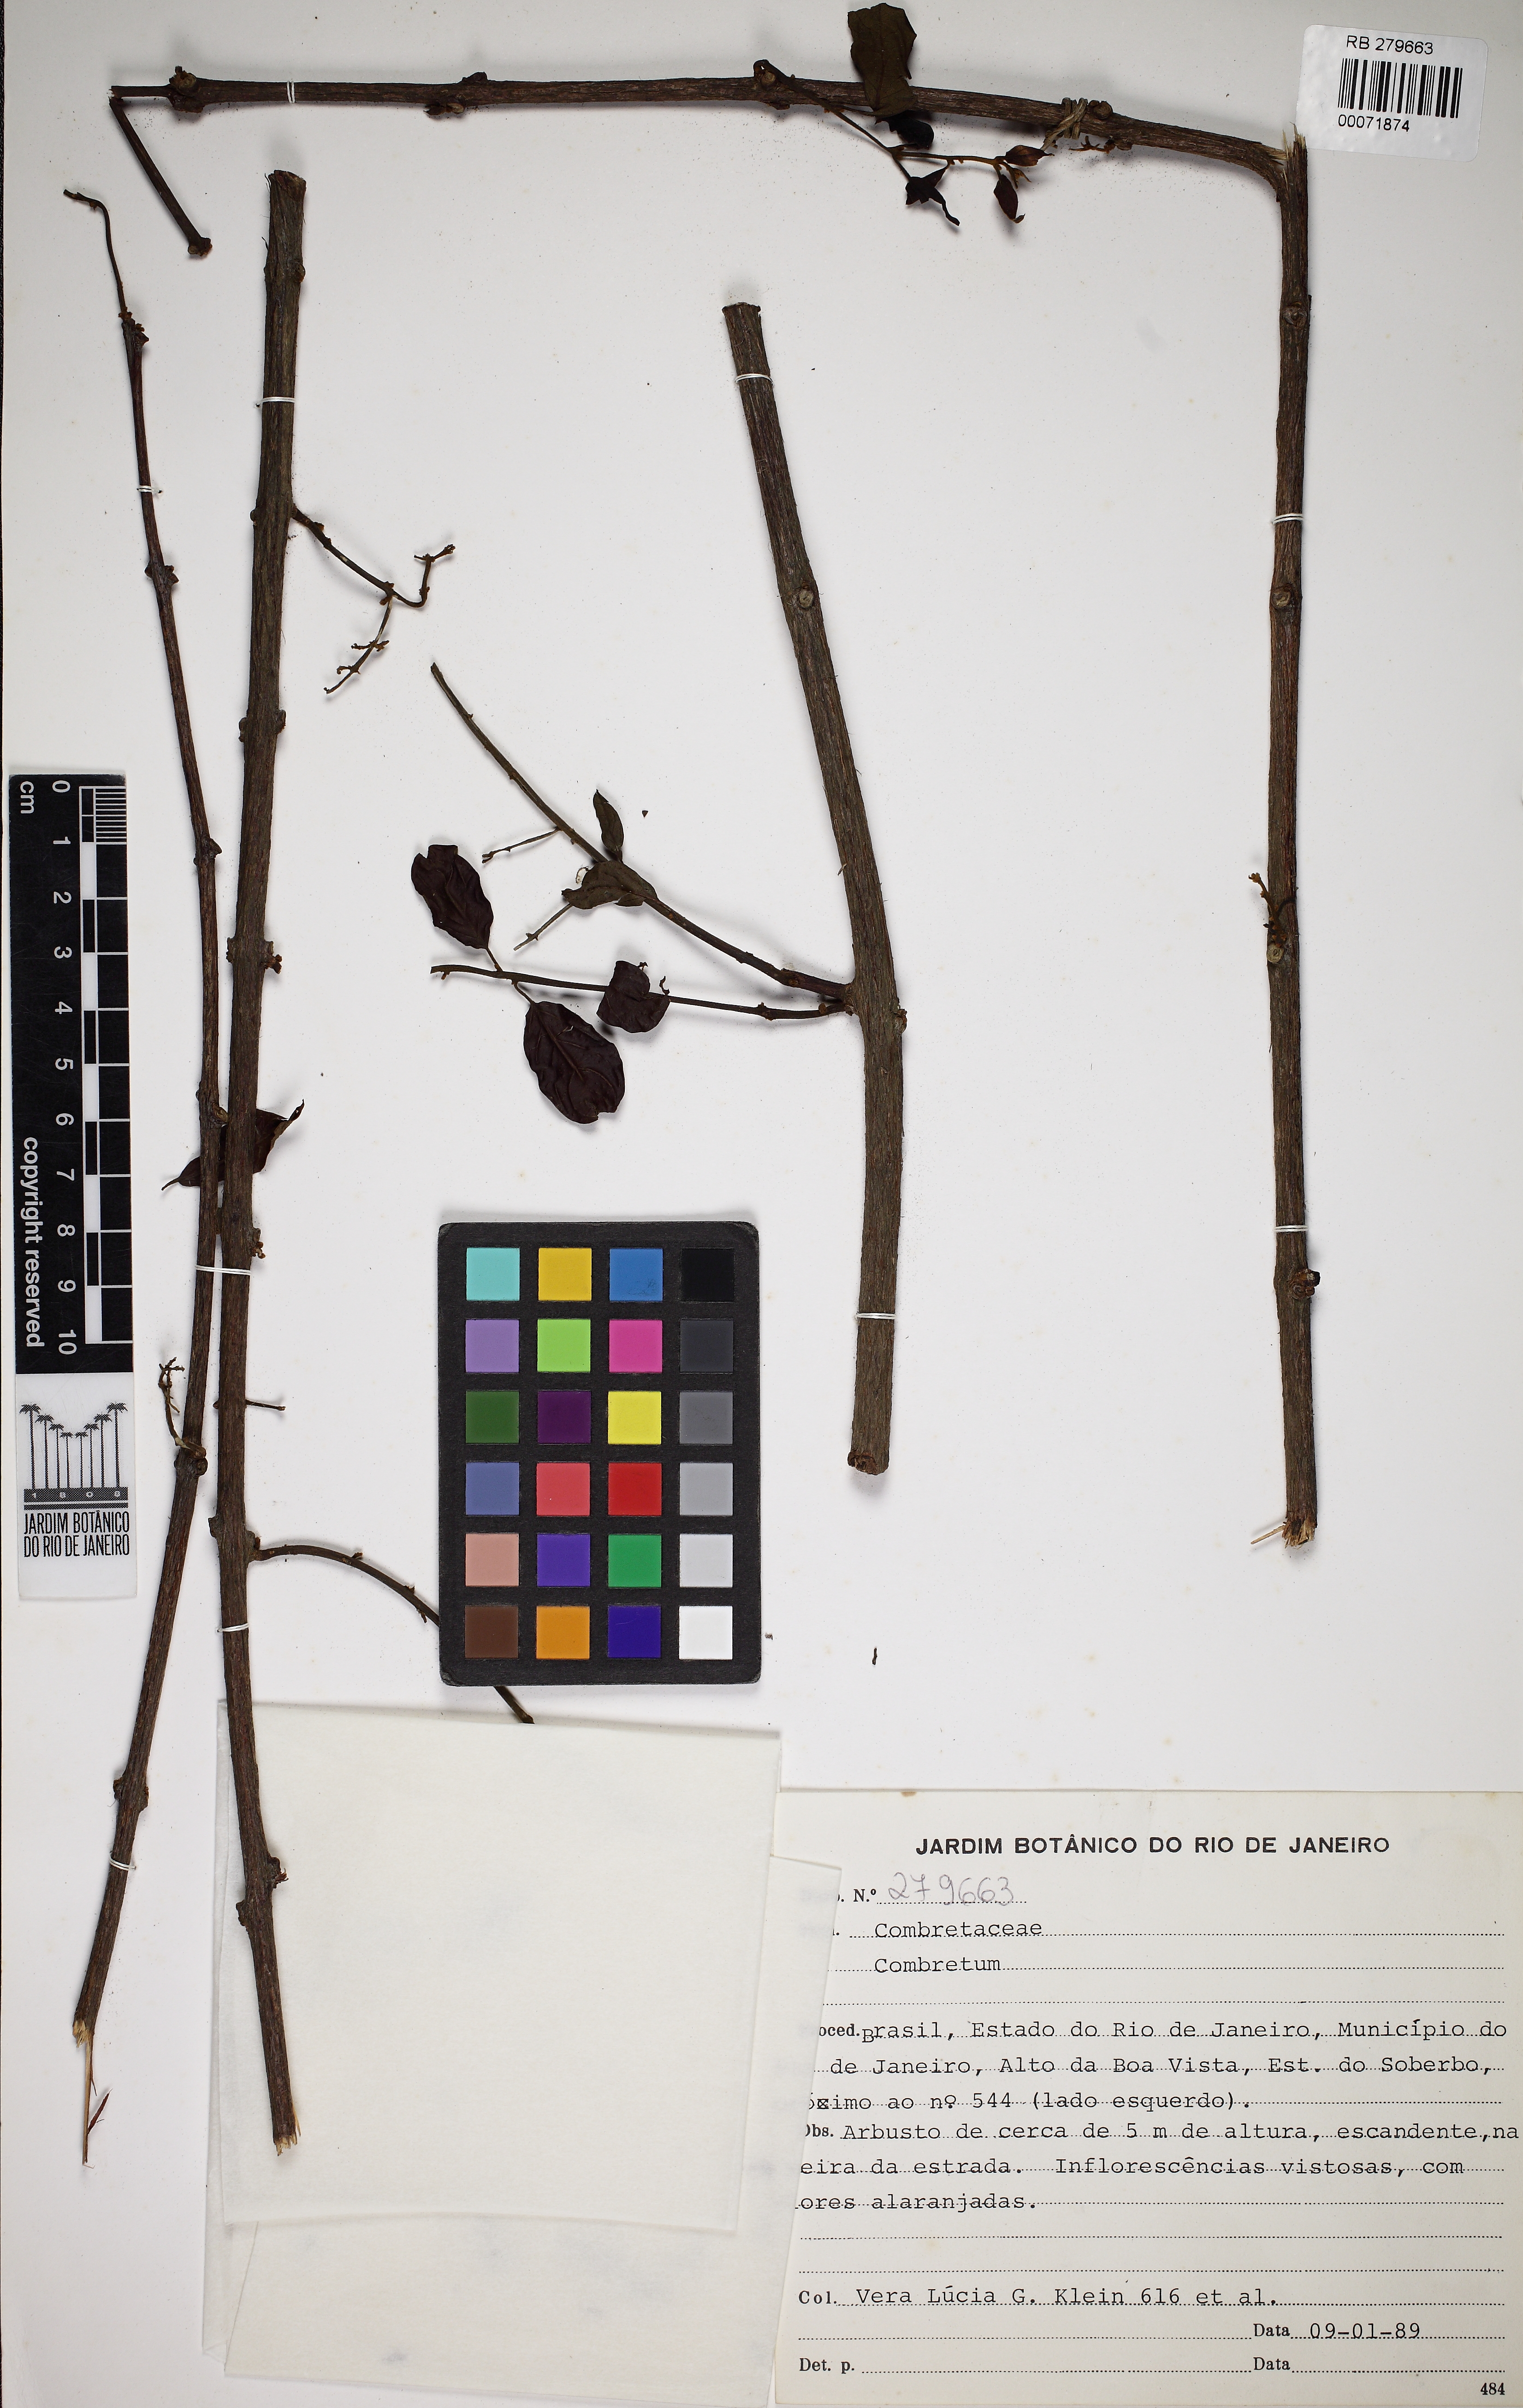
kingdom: Plantae
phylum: Tracheophyta
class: Magnoliopsida
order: Myrtales
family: Combretaceae
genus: Combretum
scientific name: Combretum
